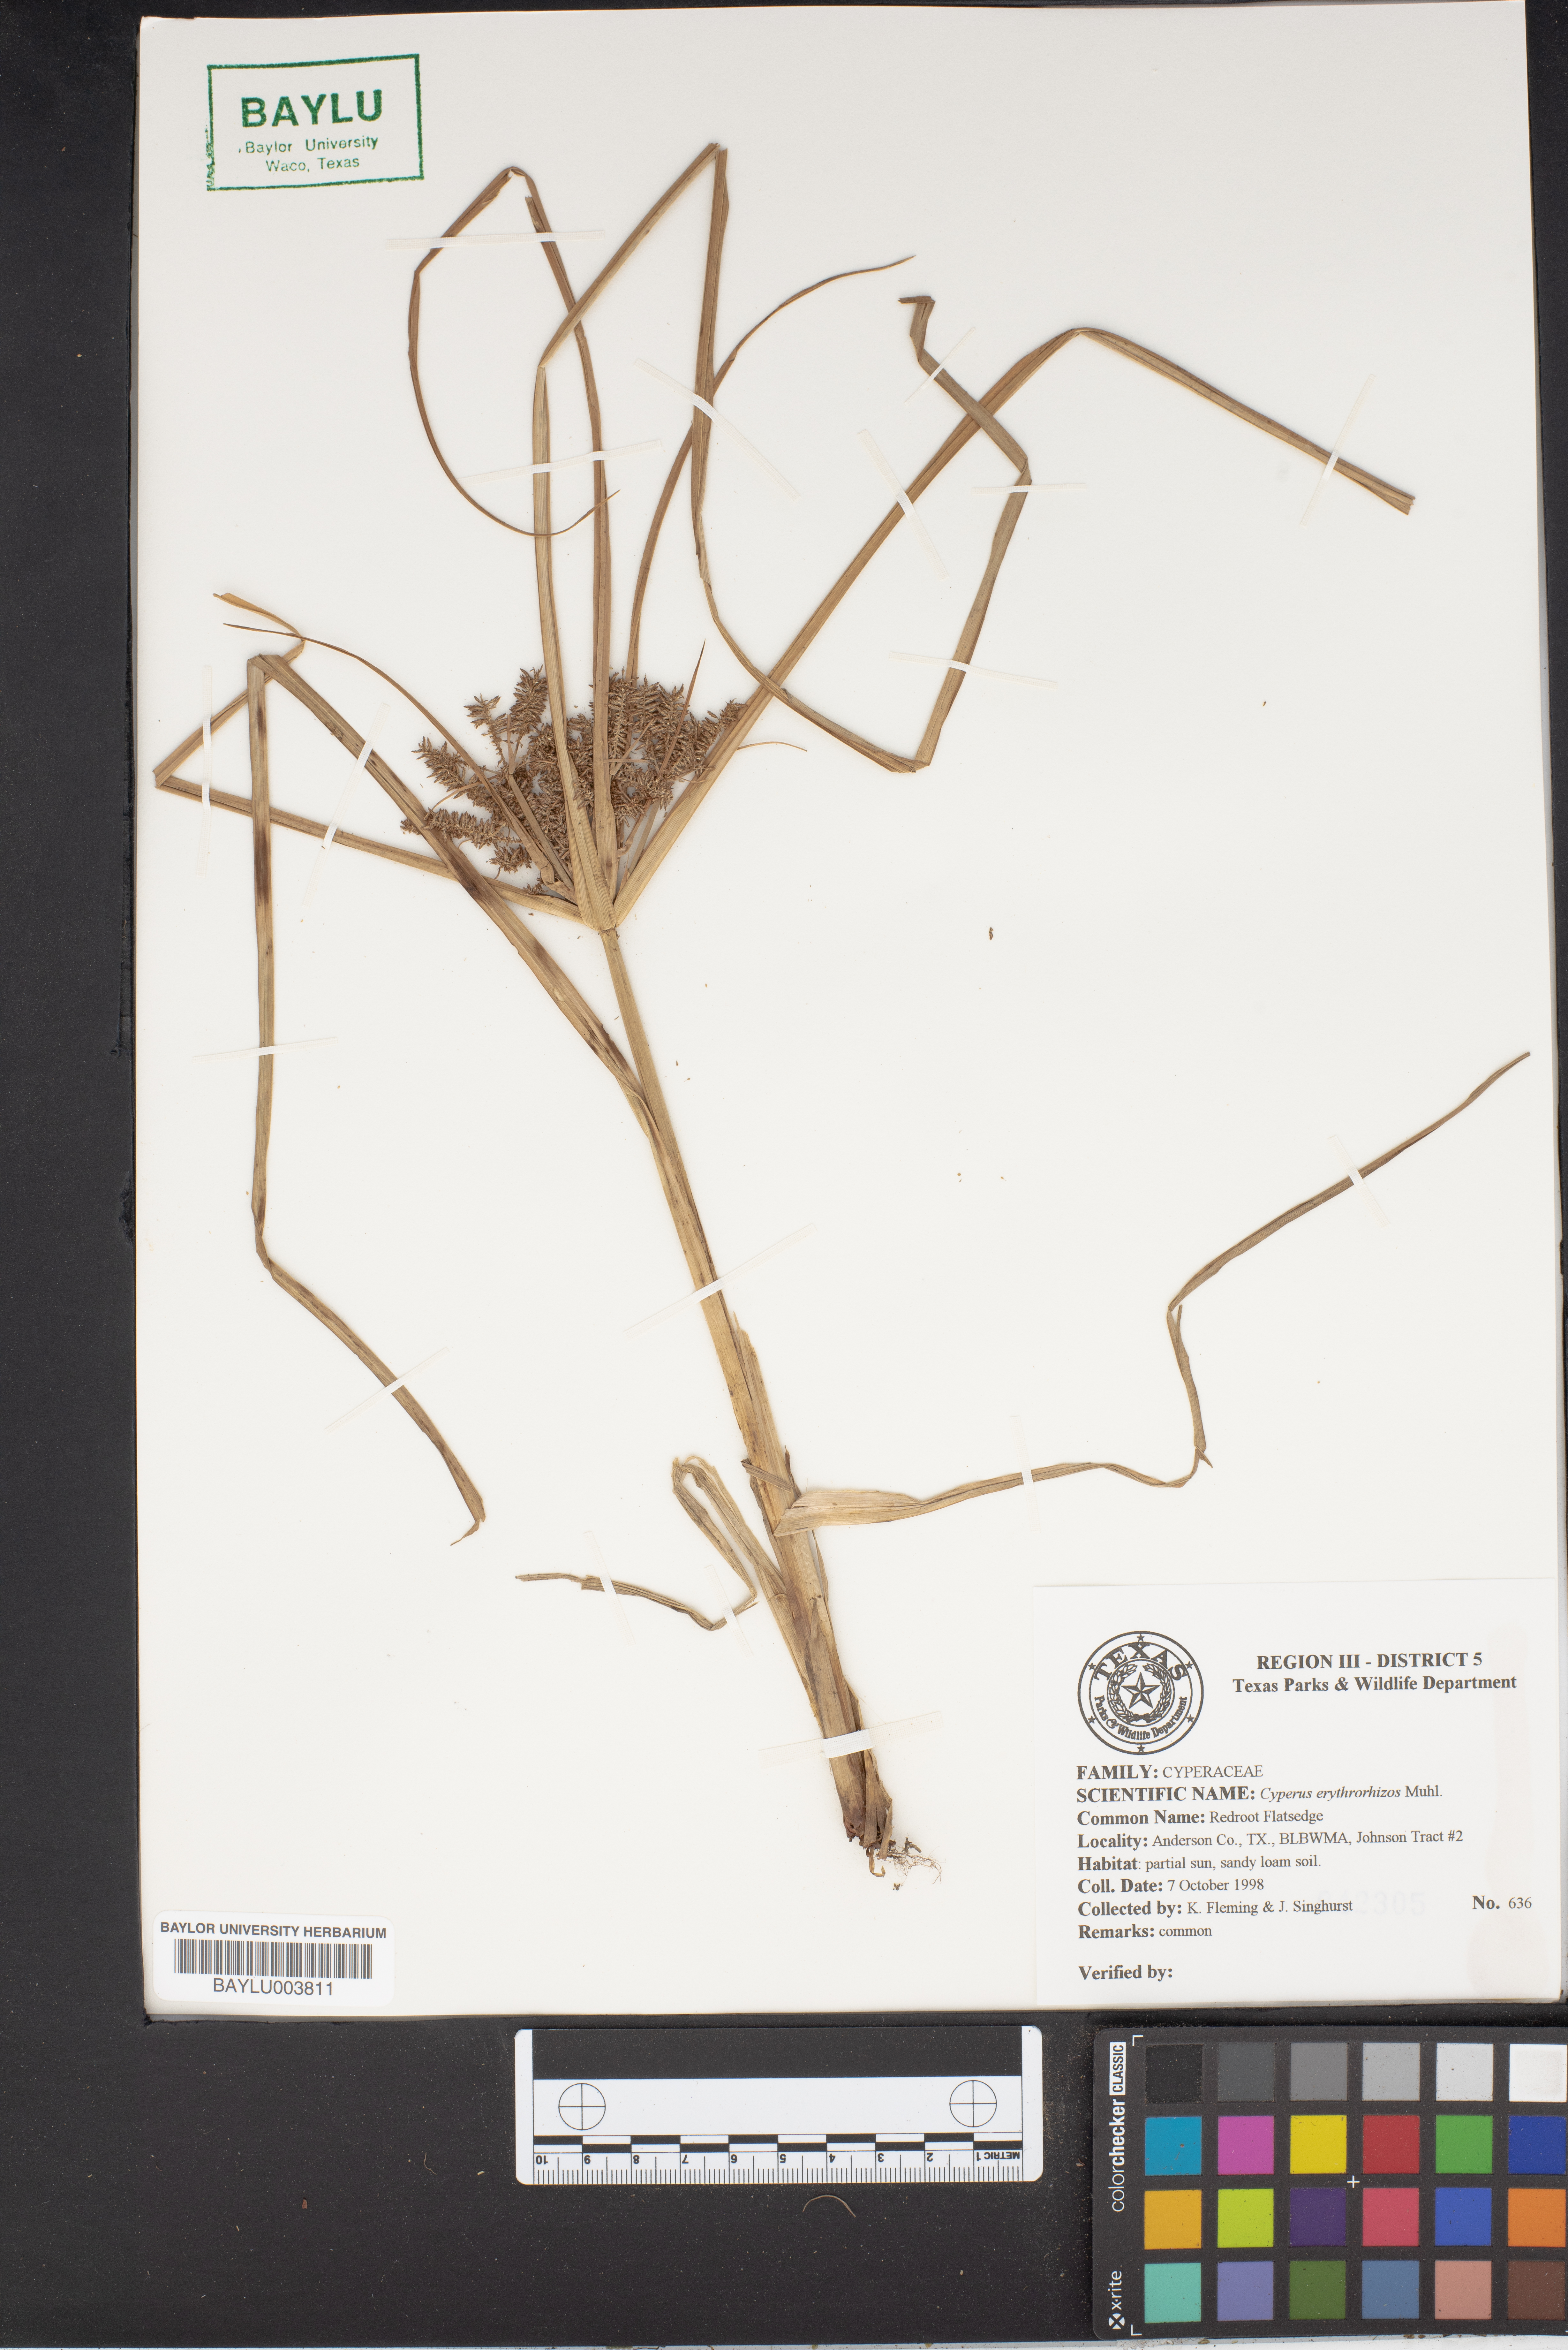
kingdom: Plantae
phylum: Tracheophyta
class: Liliopsida
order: Poales
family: Cyperaceae
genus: Cyperus
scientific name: Cyperus erythrorhizos
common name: Red-root flat sedge
